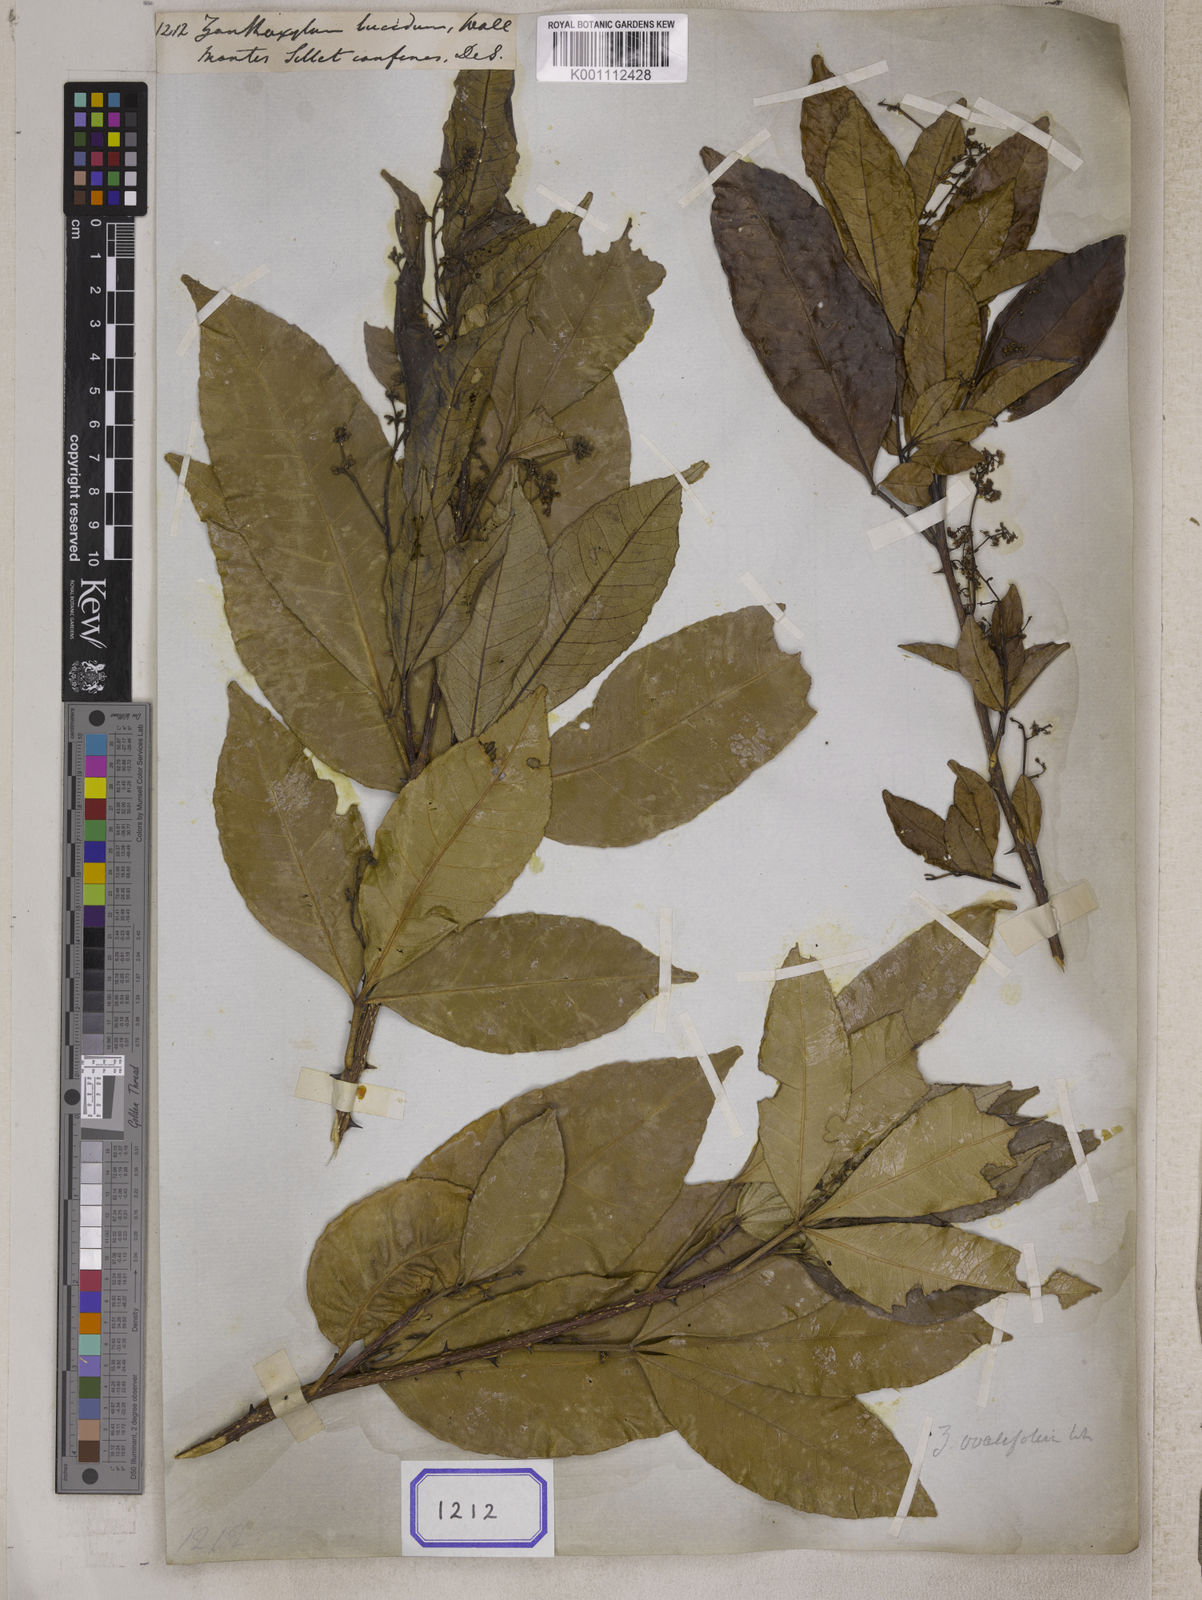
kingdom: Plantae
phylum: Tracheophyta
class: Magnoliopsida
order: Sapindales
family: Rutaceae
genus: Zanthoxylum
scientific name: Zanthoxylum ovalifolium
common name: Thorny yellowwood
